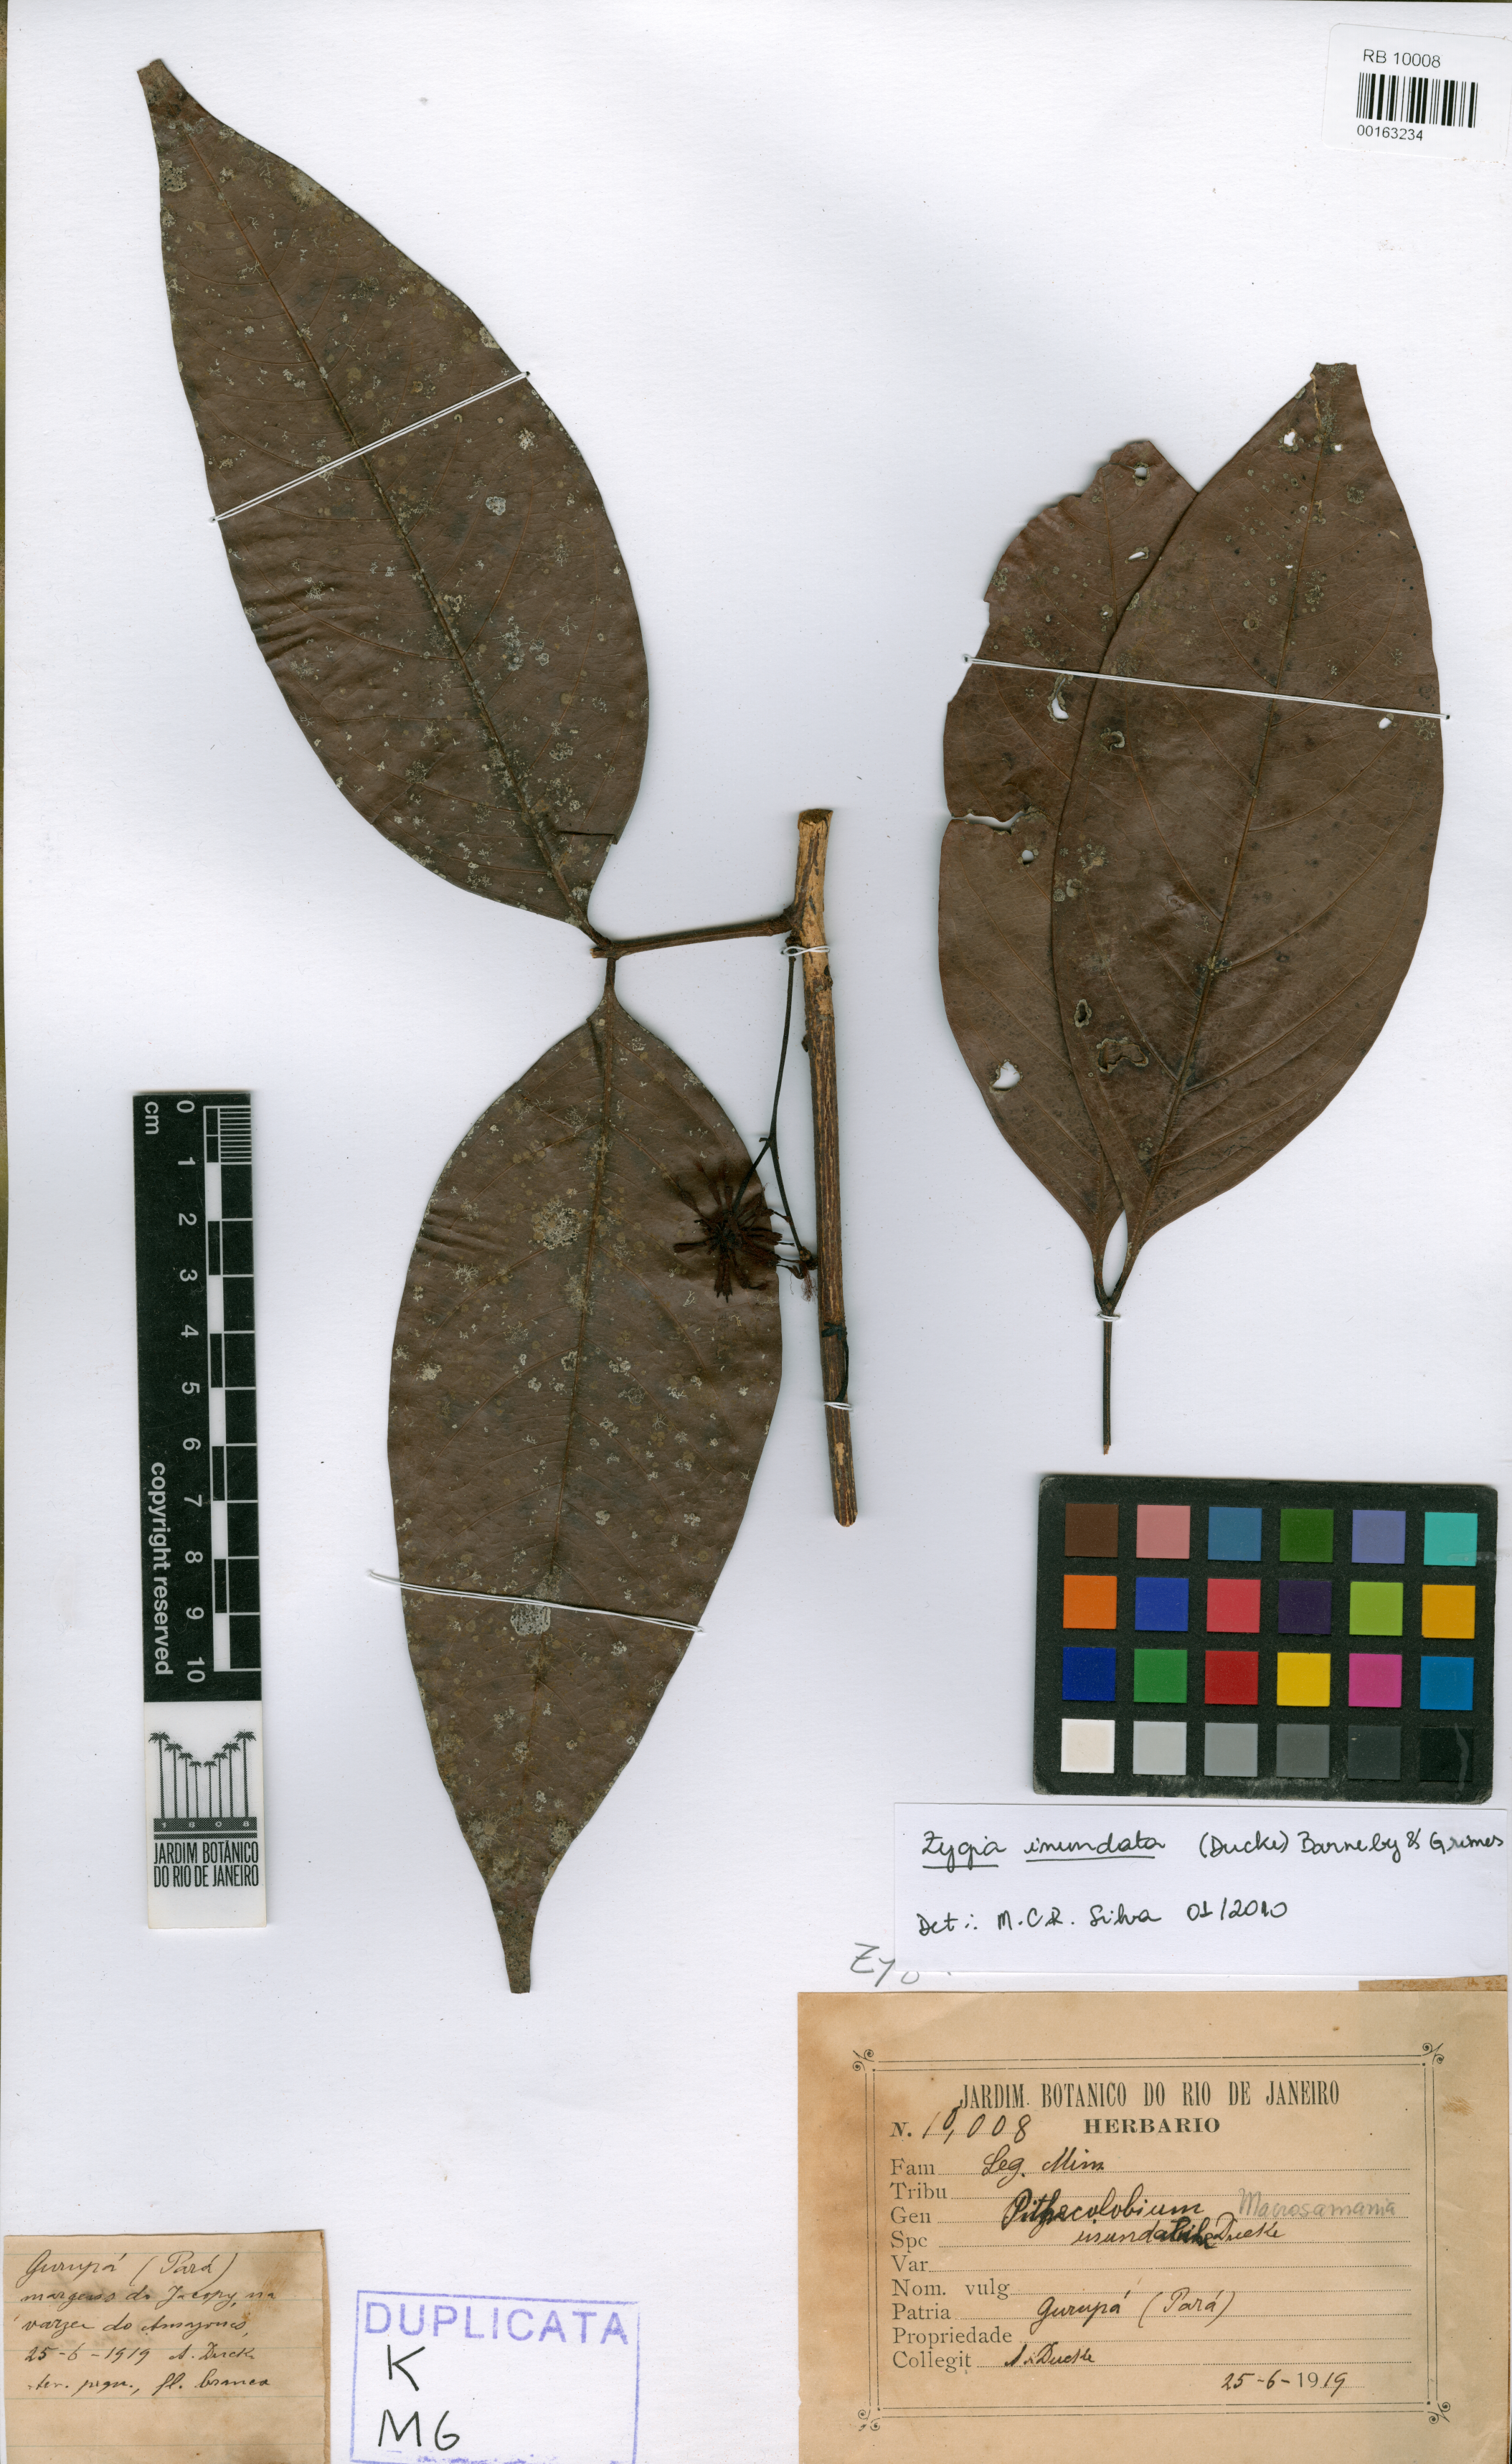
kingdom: Plantae
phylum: Tracheophyta
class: Magnoliopsida
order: Fabales
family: Fabaceae
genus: Inga
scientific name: Inga inundata
